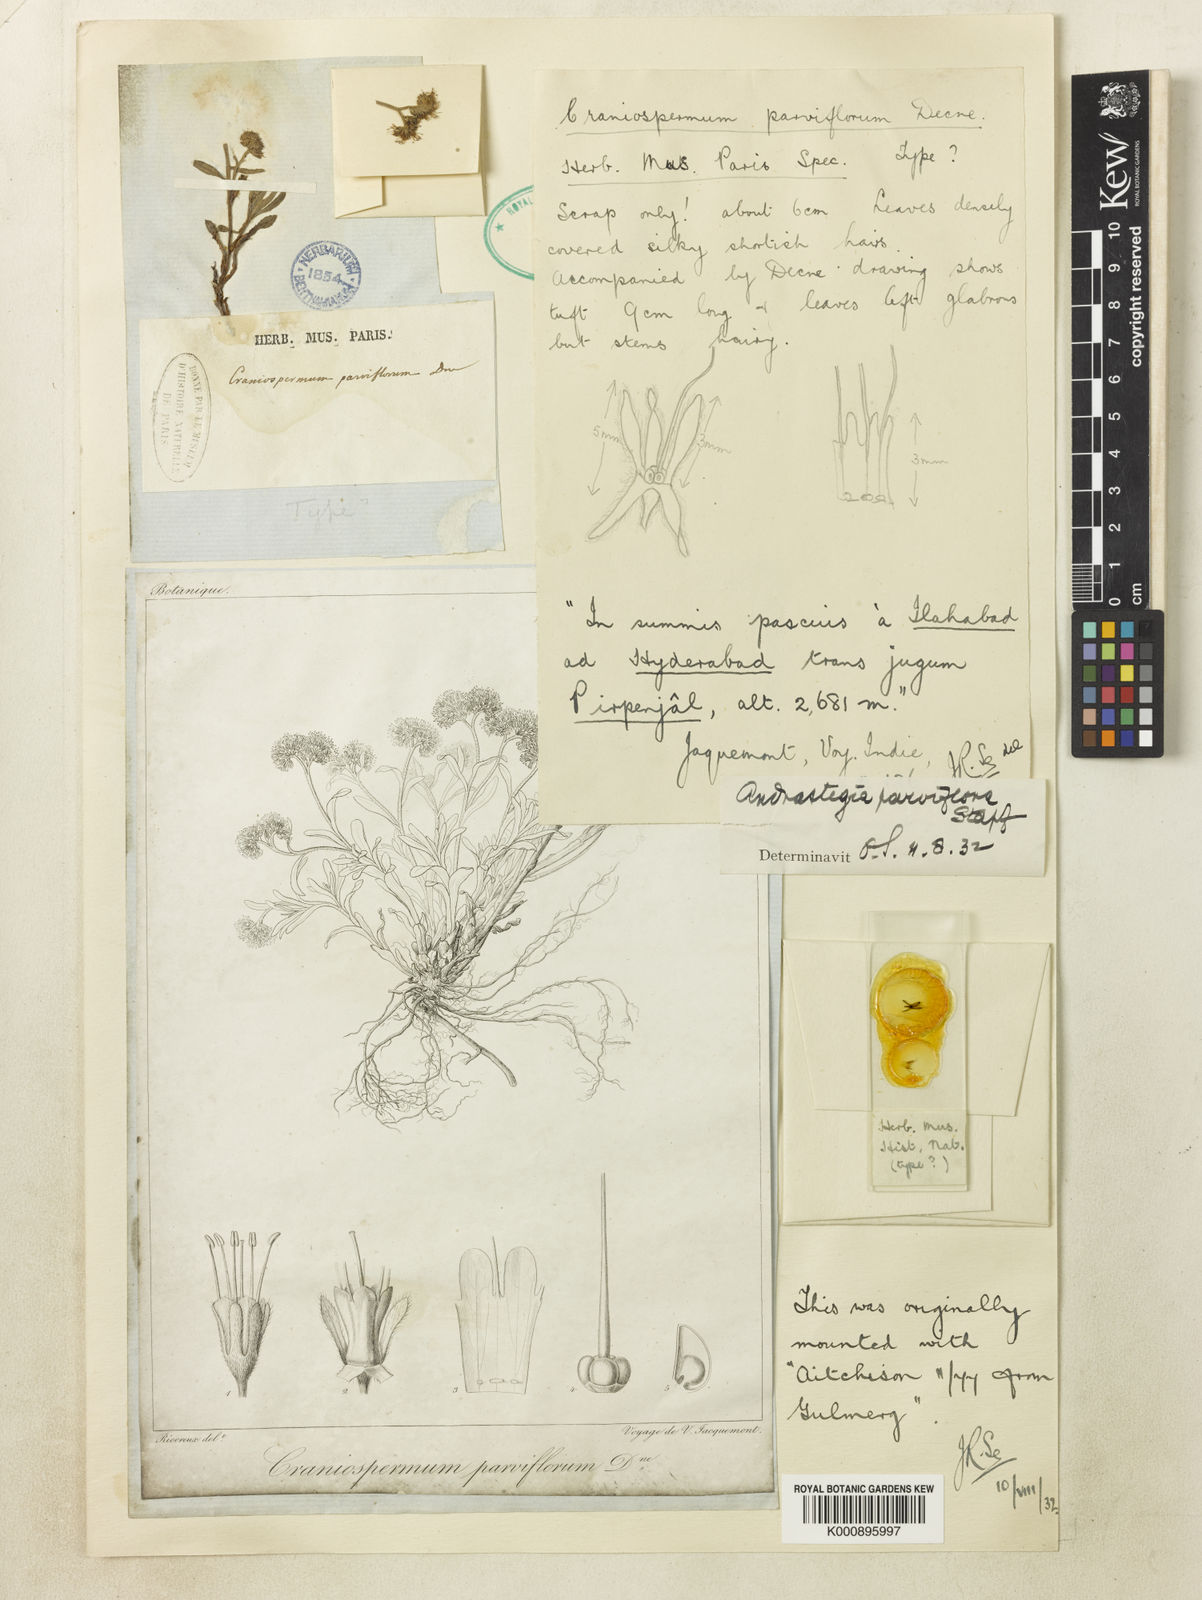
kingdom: Plantae
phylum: Tracheophyta
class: Magnoliopsida
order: Boraginales
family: Boraginaceae
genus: Decalepidanthus
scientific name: Decalepidanthus parviflorus
